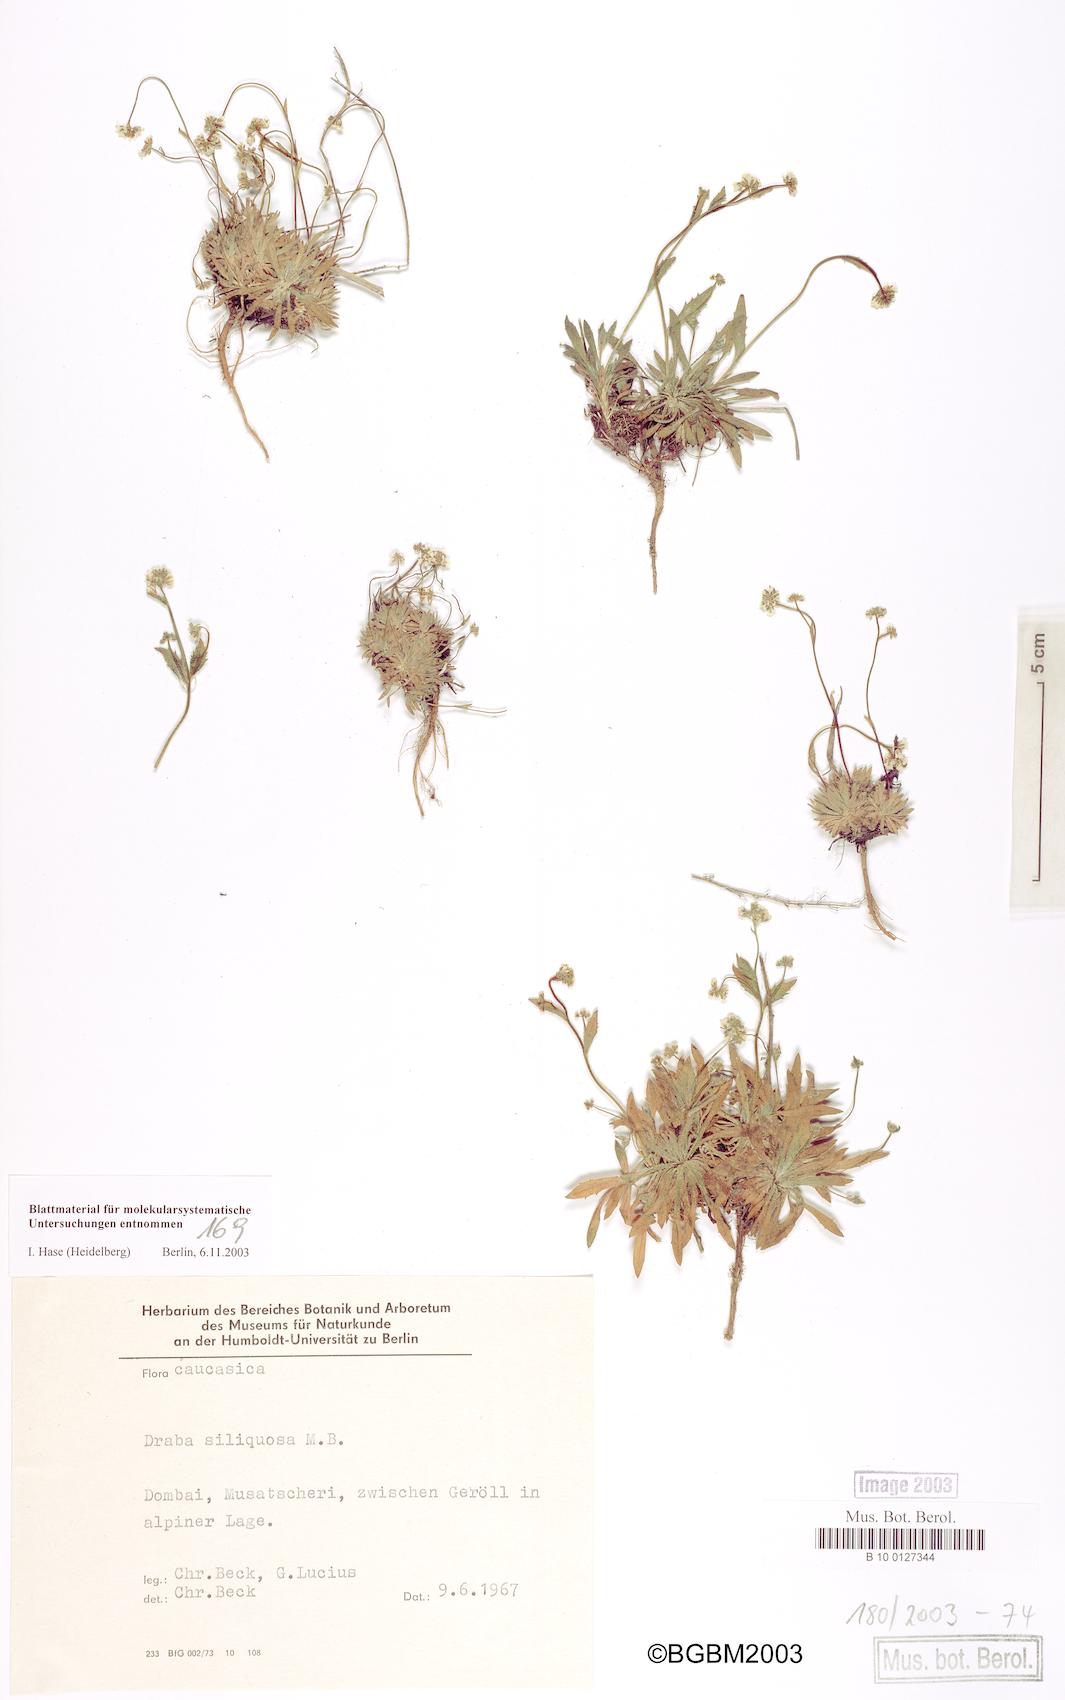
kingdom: Plantae
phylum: Tracheophyta
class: Magnoliopsida
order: Brassicales
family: Brassicaceae
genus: Draba
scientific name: Draba siliquosa
